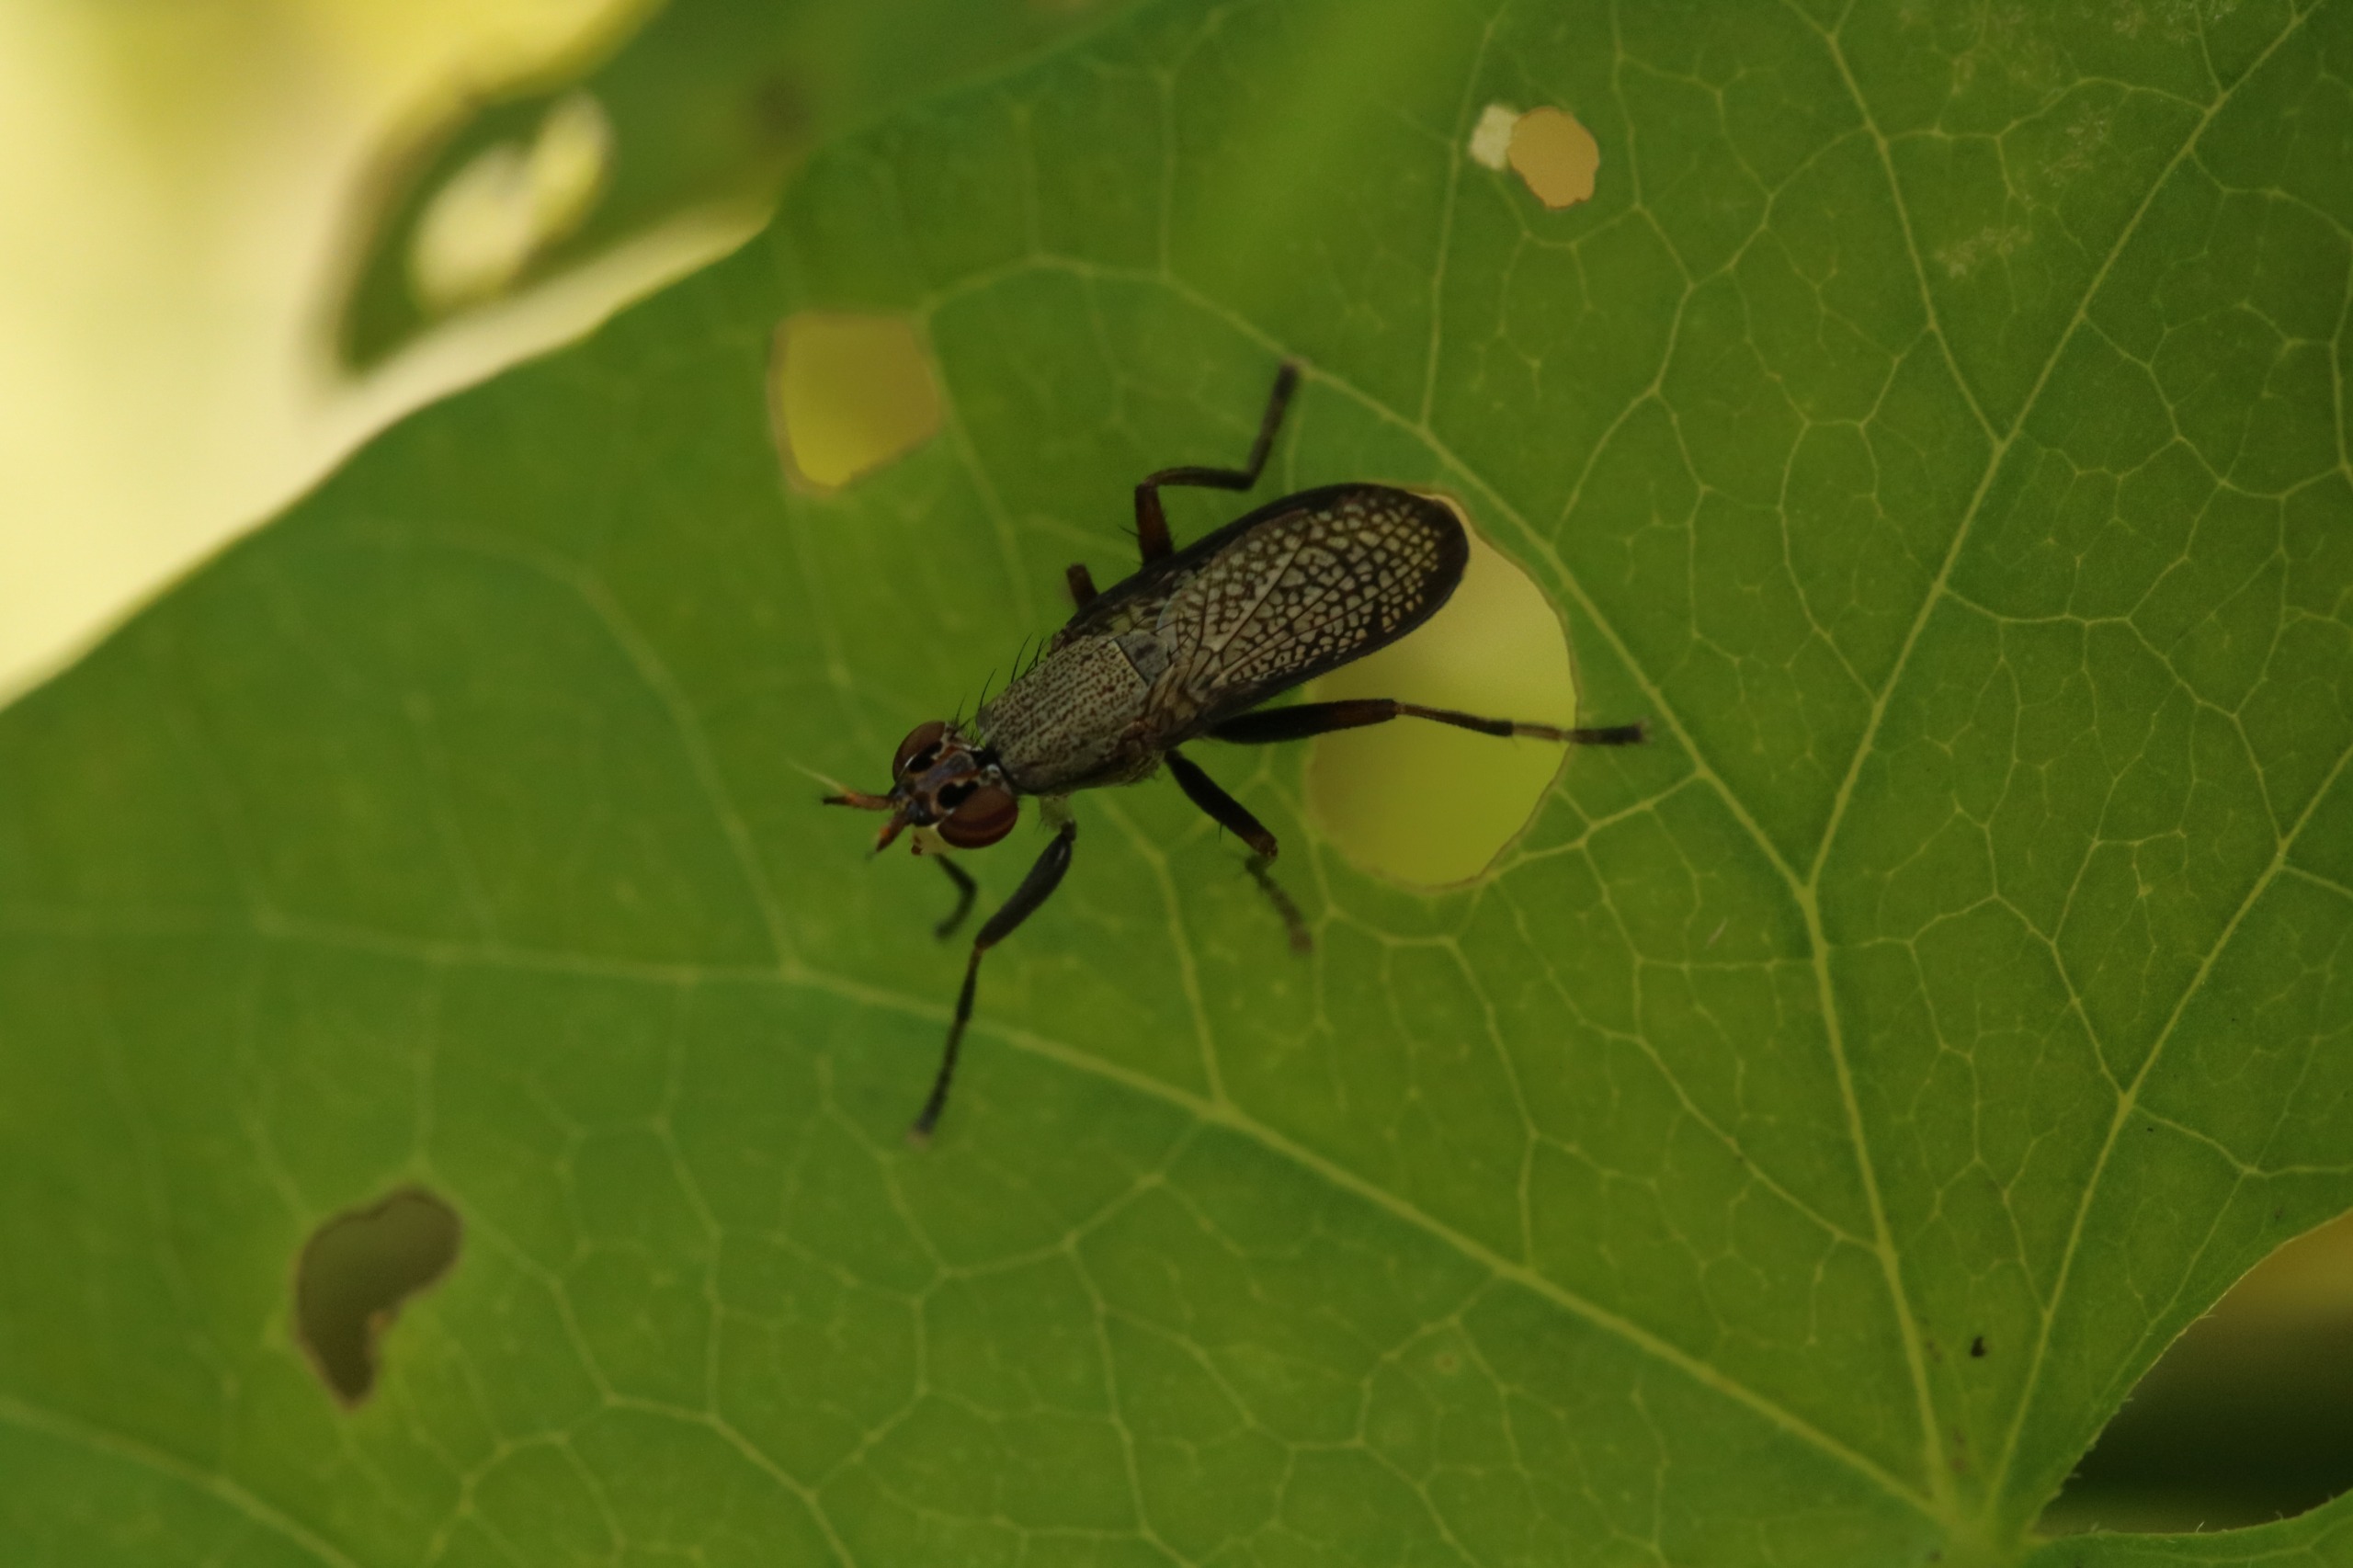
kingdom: Animalia
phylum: Arthropoda
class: Insecta
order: Diptera
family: Sciomyzidae
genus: Coremacera
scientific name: Coremacera marginata
